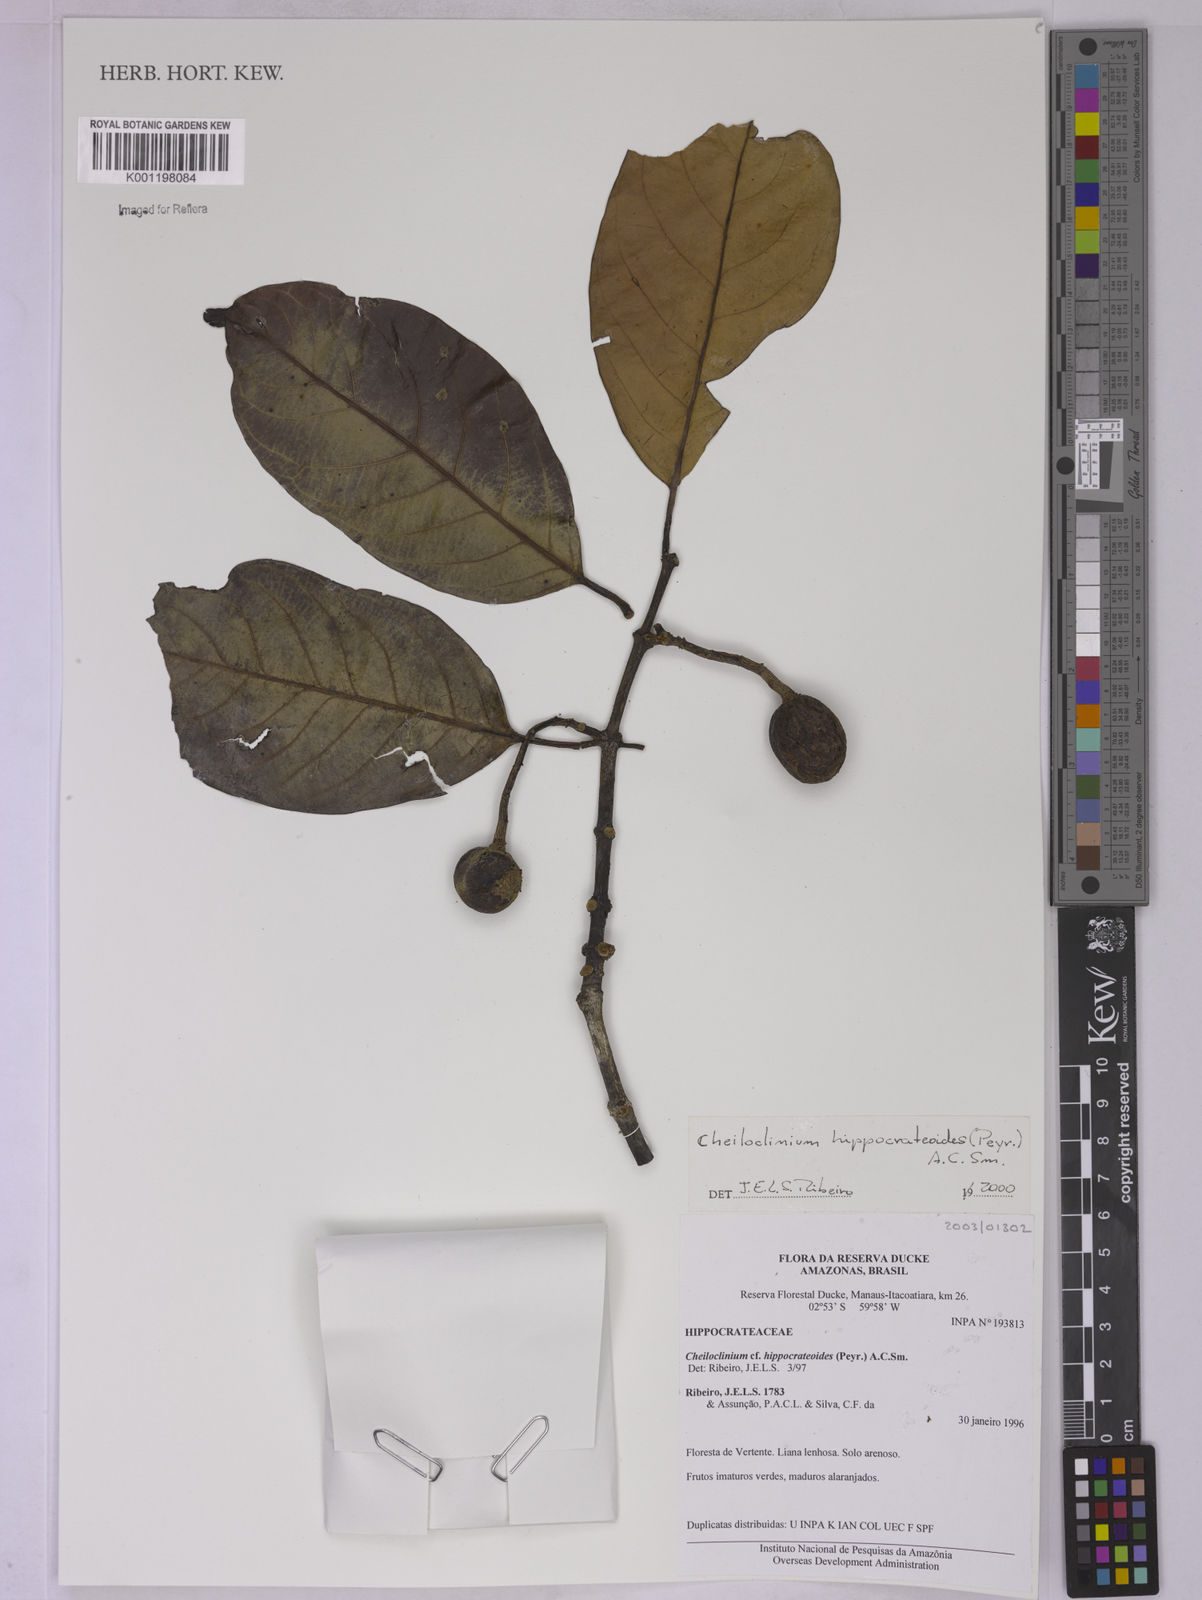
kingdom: Plantae
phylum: Tracheophyta
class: Magnoliopsida
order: Celastrales
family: Celastraceae
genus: Cheiloclinium
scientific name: Cheiloclinium hippocrateoides
